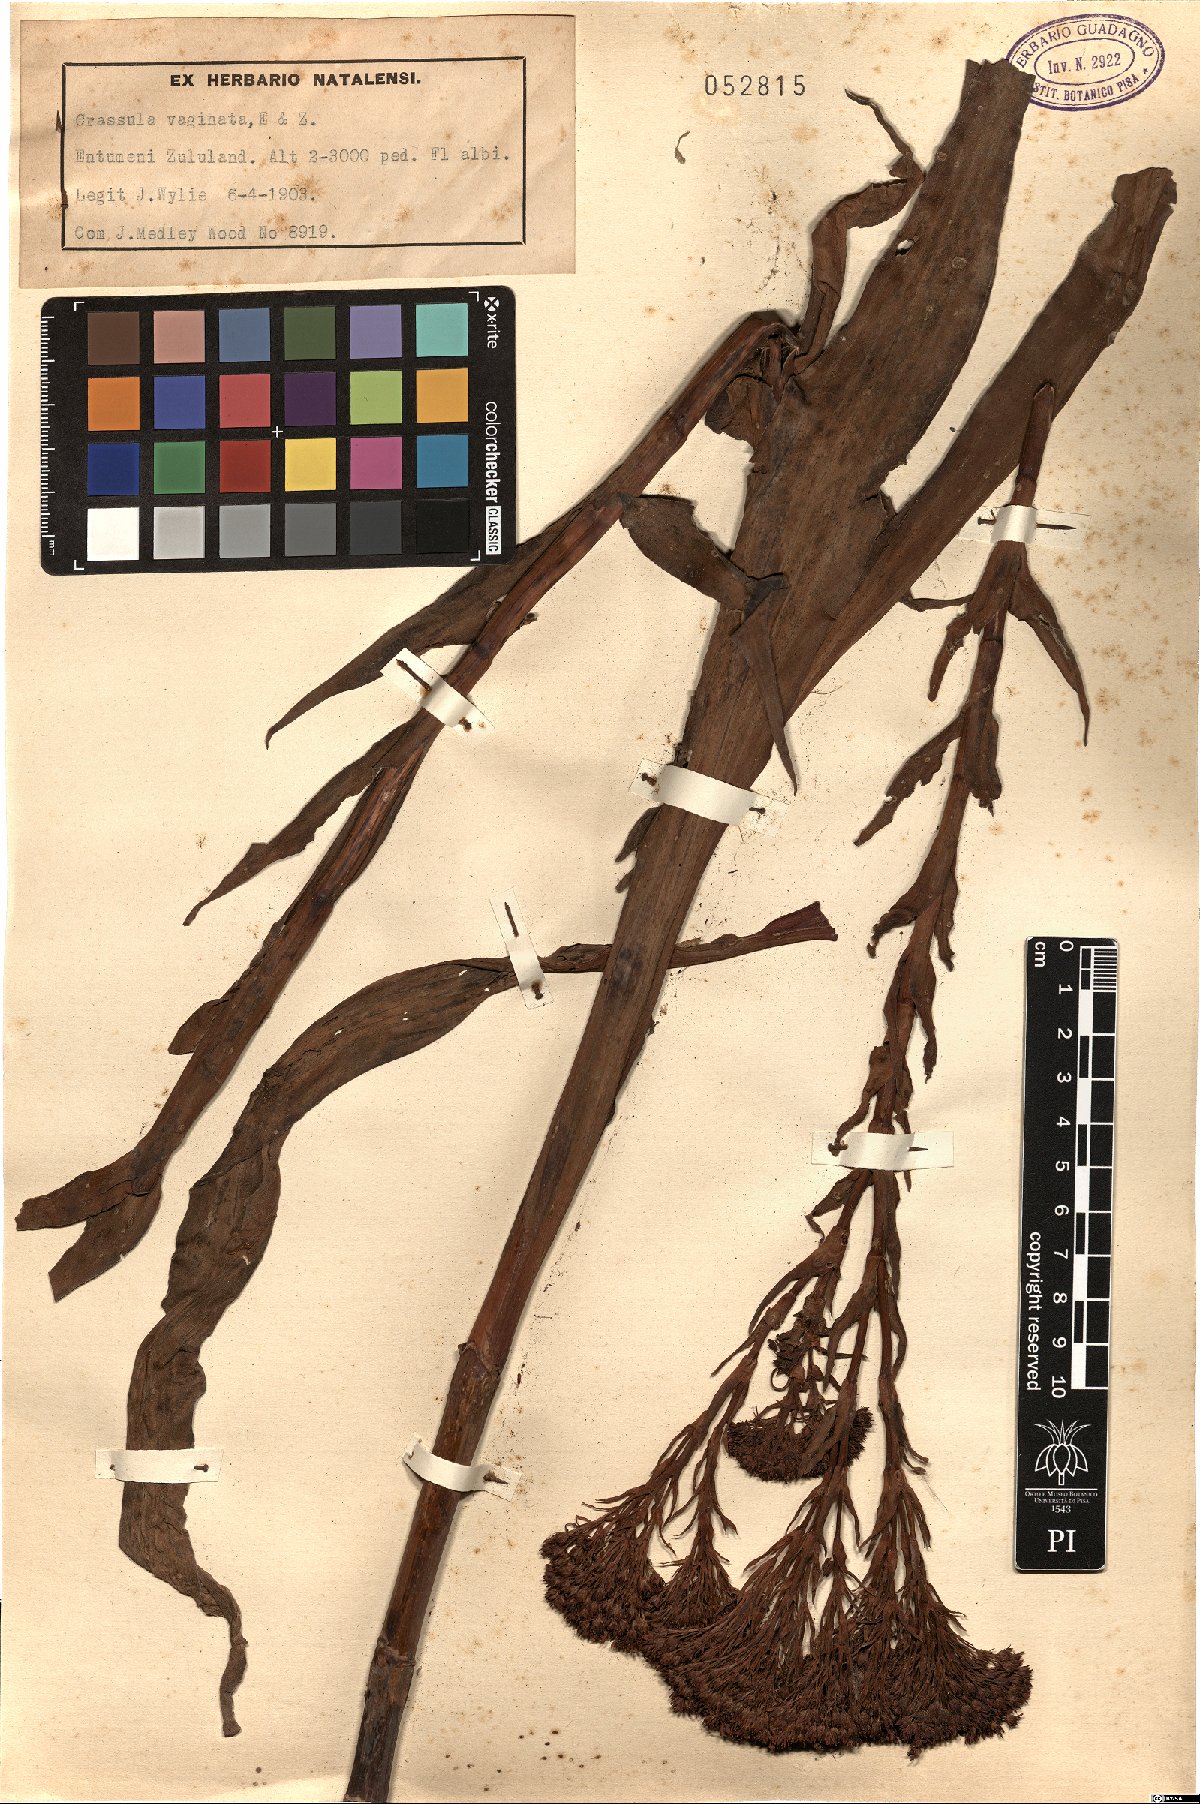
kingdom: Plantae
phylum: Tracheophyta
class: Magnoliopsida
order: Saxifragales
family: Crassulaceae
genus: Crassula
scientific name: Crassula vaginata
